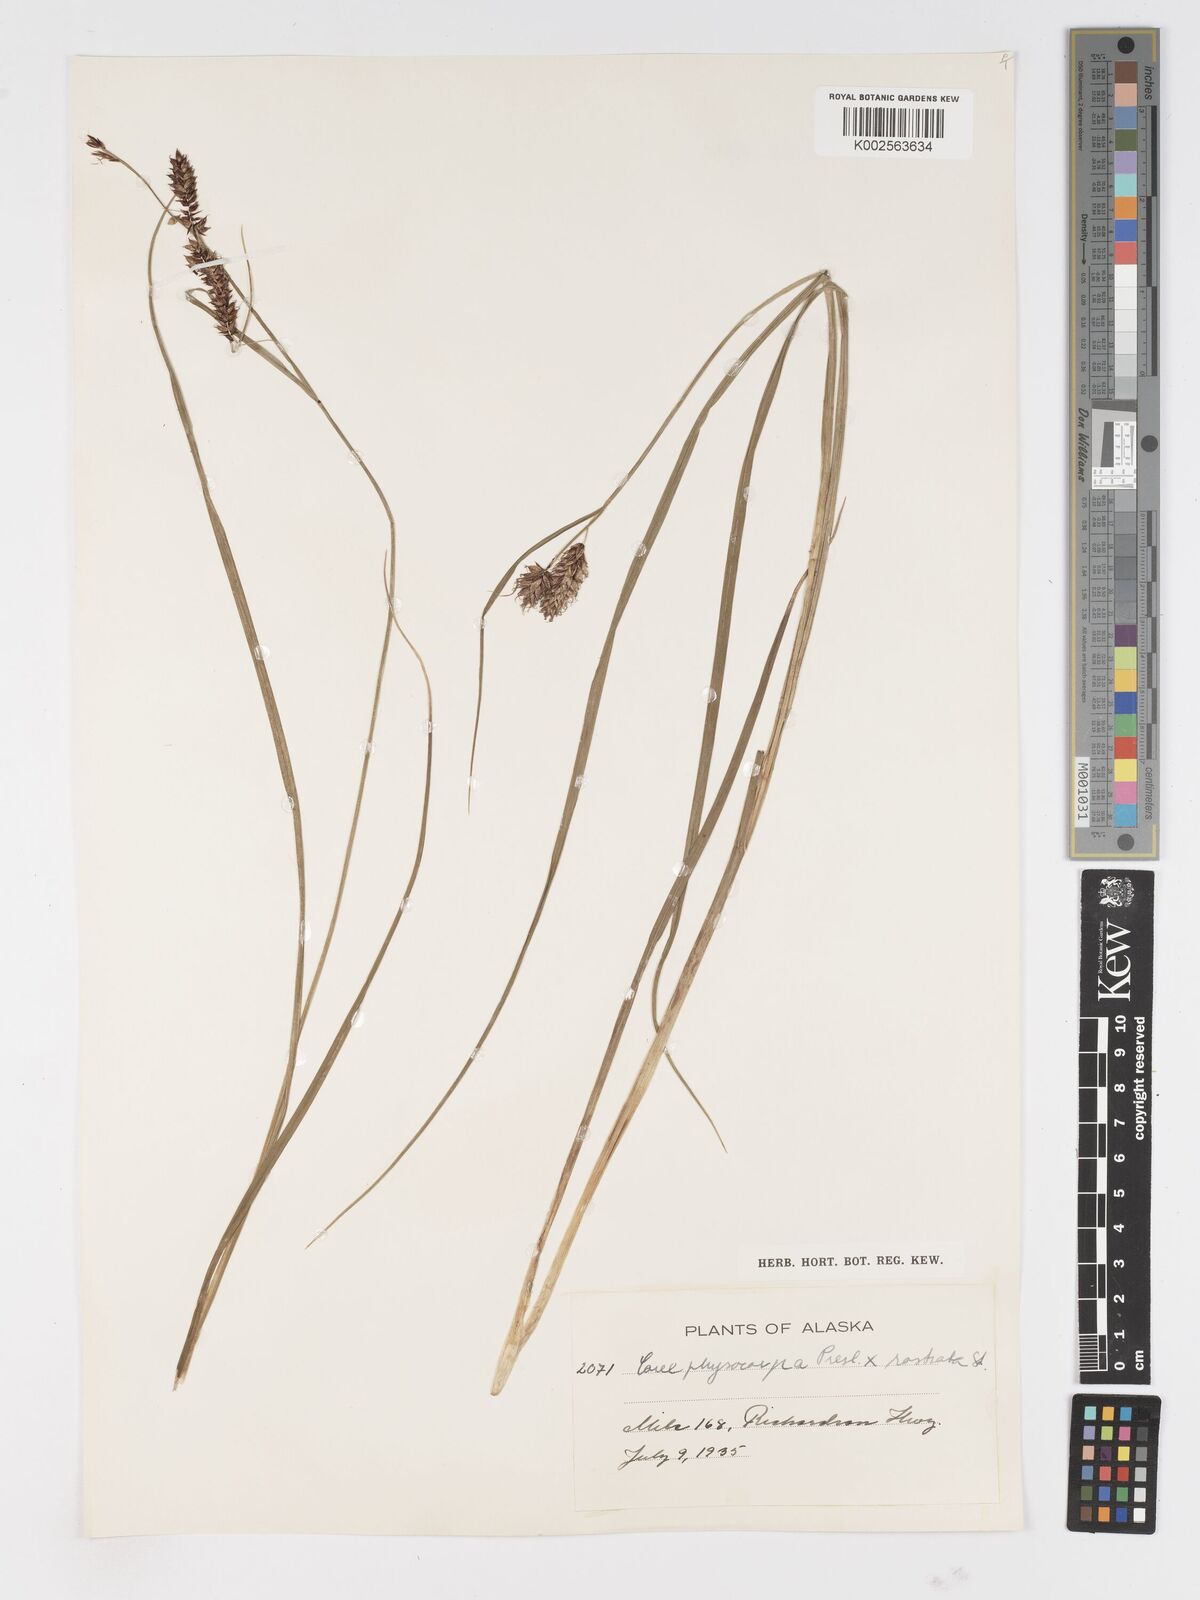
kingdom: Plantae
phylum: Tracheophyta
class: Liliopsida
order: Poales
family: Cyperaceae
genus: Carex
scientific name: Carex saxatilis
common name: Russet sedge
